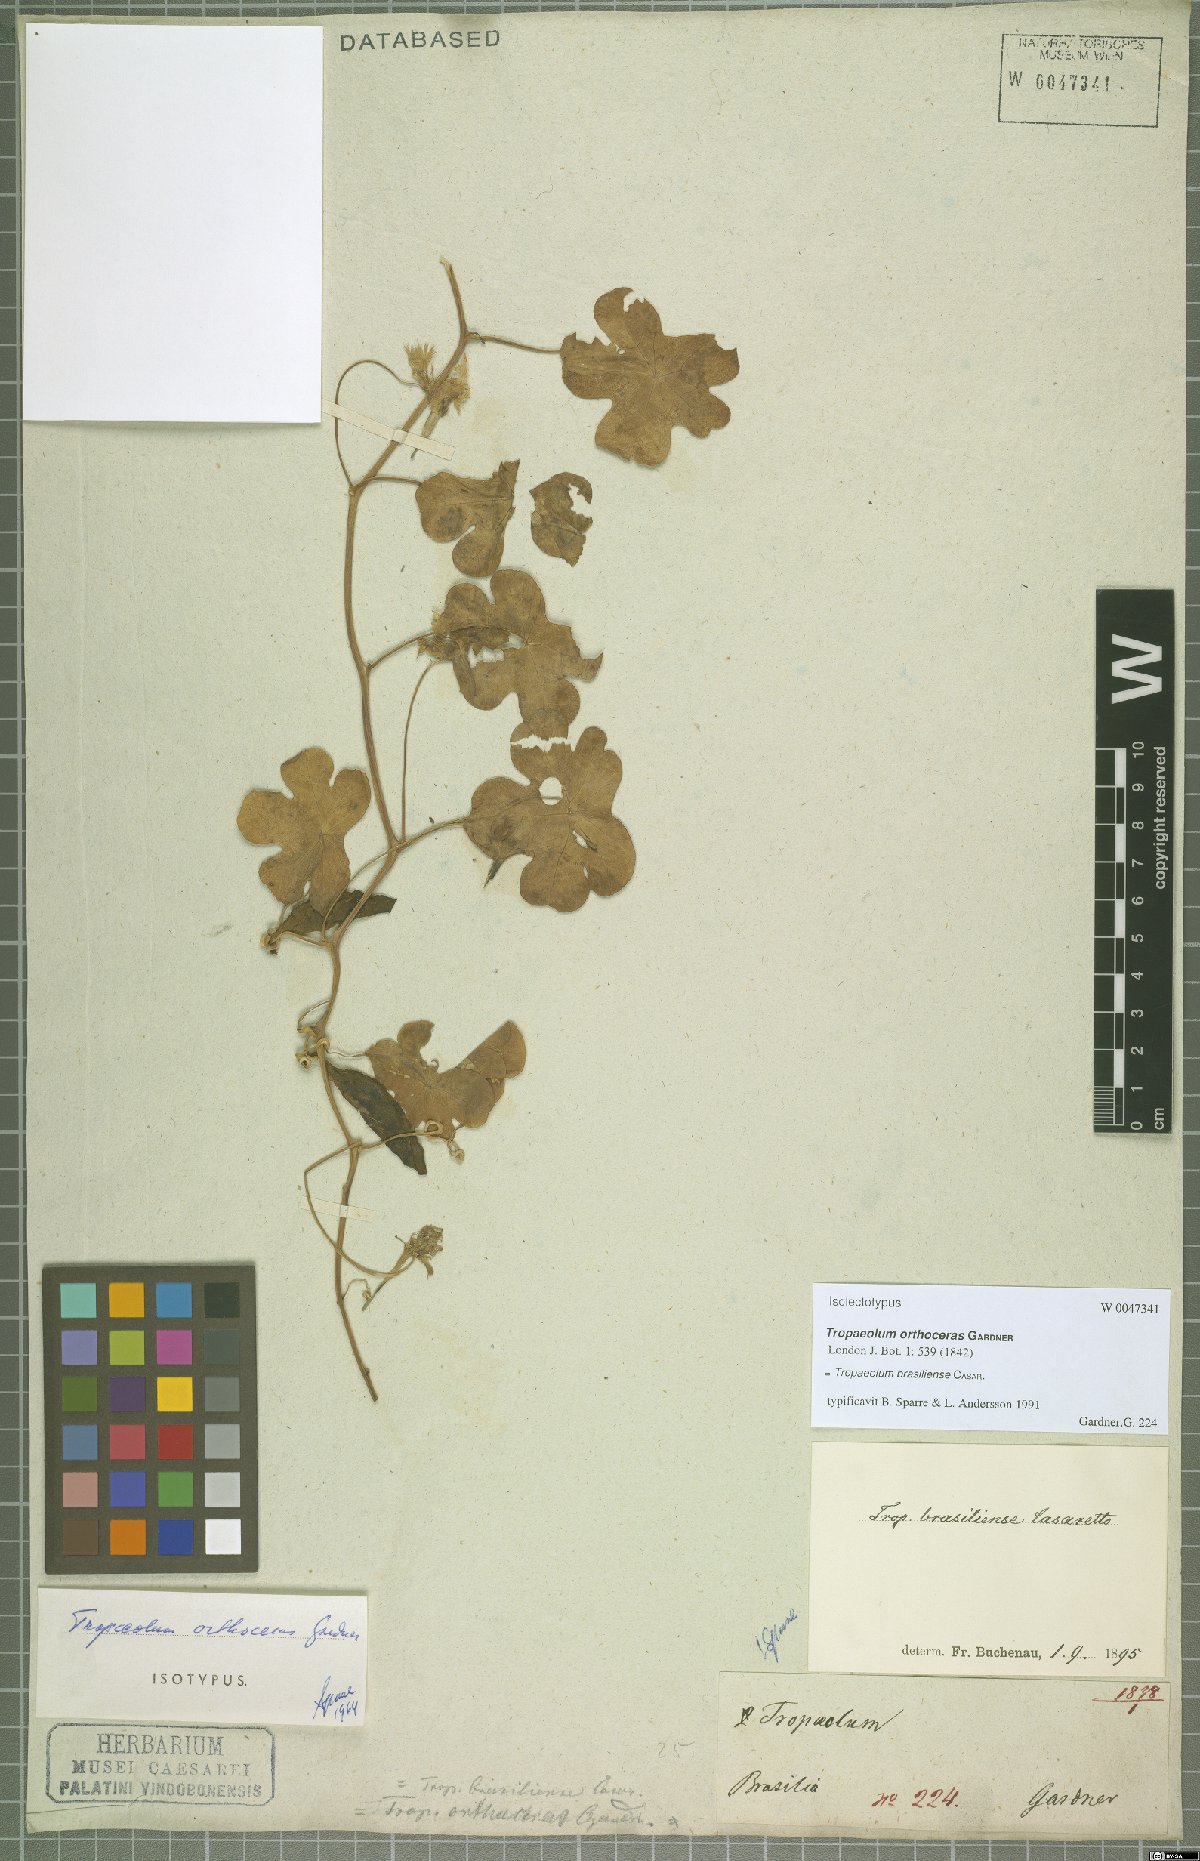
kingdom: Plantae
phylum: Tracheophyta
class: Magnoliopsida
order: Brassicales
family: Tropaeolaceae
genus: Tropaeolum
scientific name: Tropaeolum brasiliense
